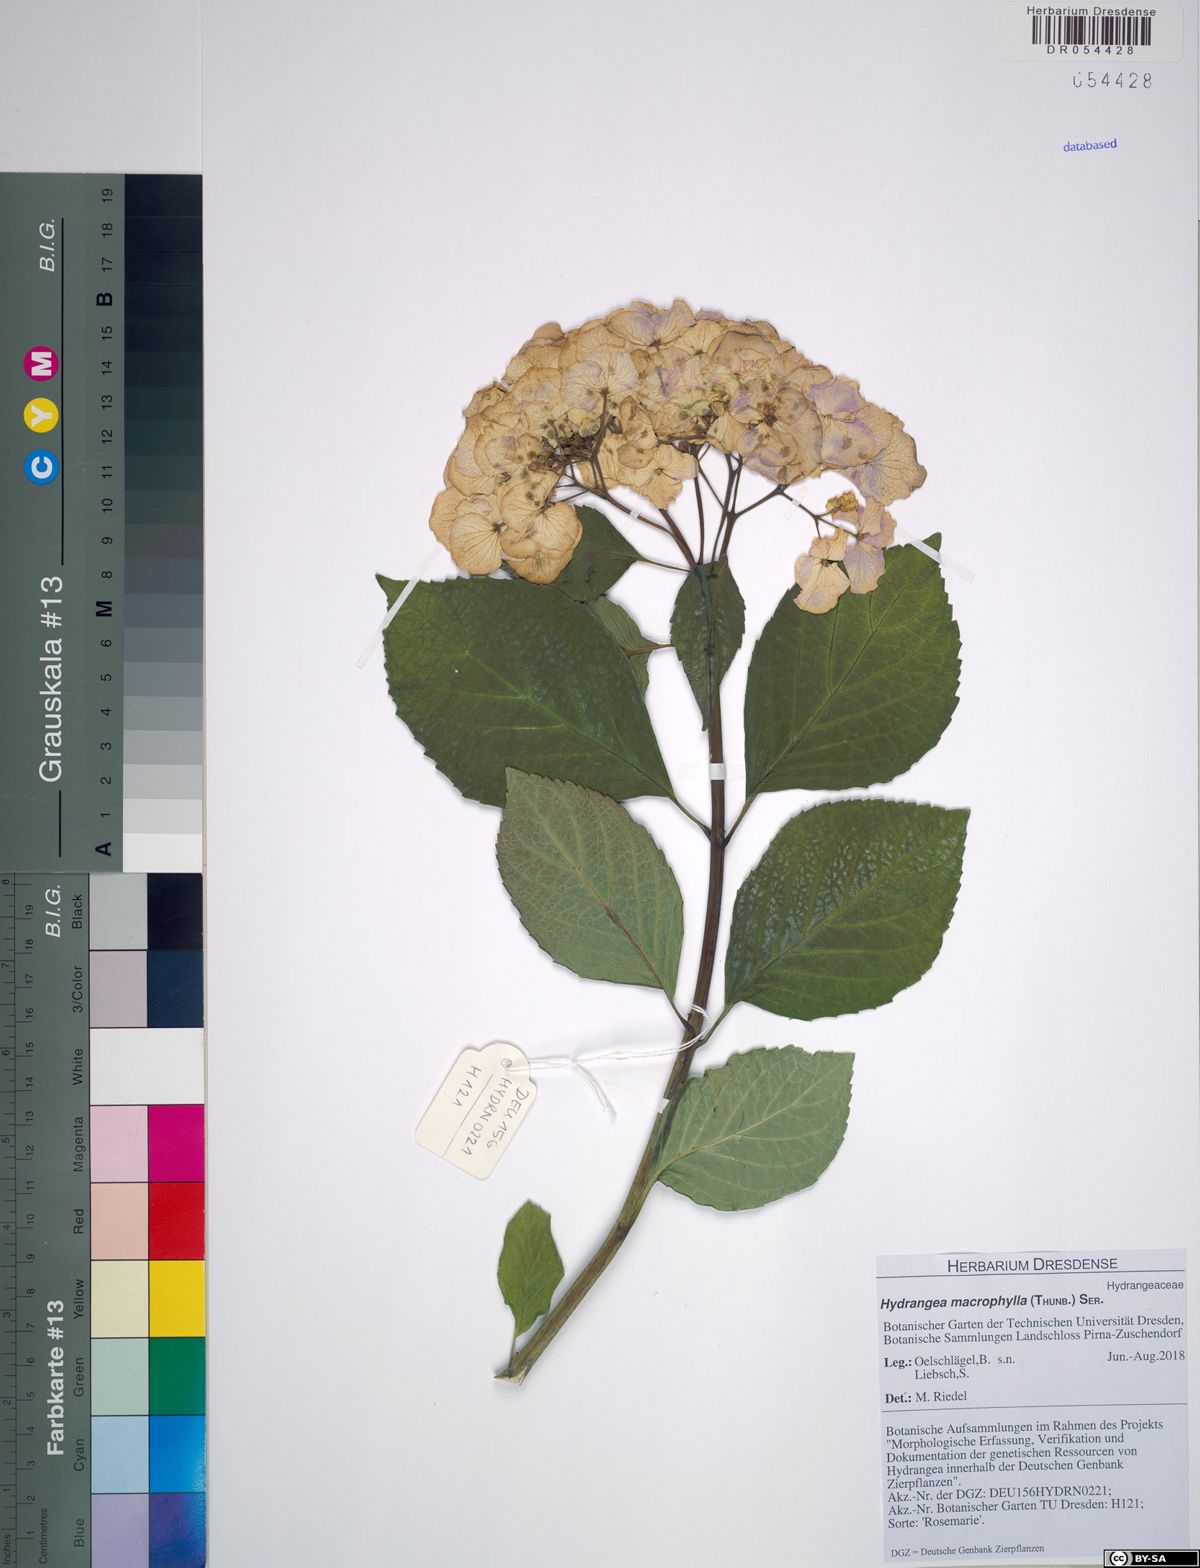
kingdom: Plantae
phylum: Tracheophyta
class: Magnoliopsida
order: Cornales
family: Hydrangeaceae
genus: Hydrangea
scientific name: Hydrangea macrophylla
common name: Hydrangea
